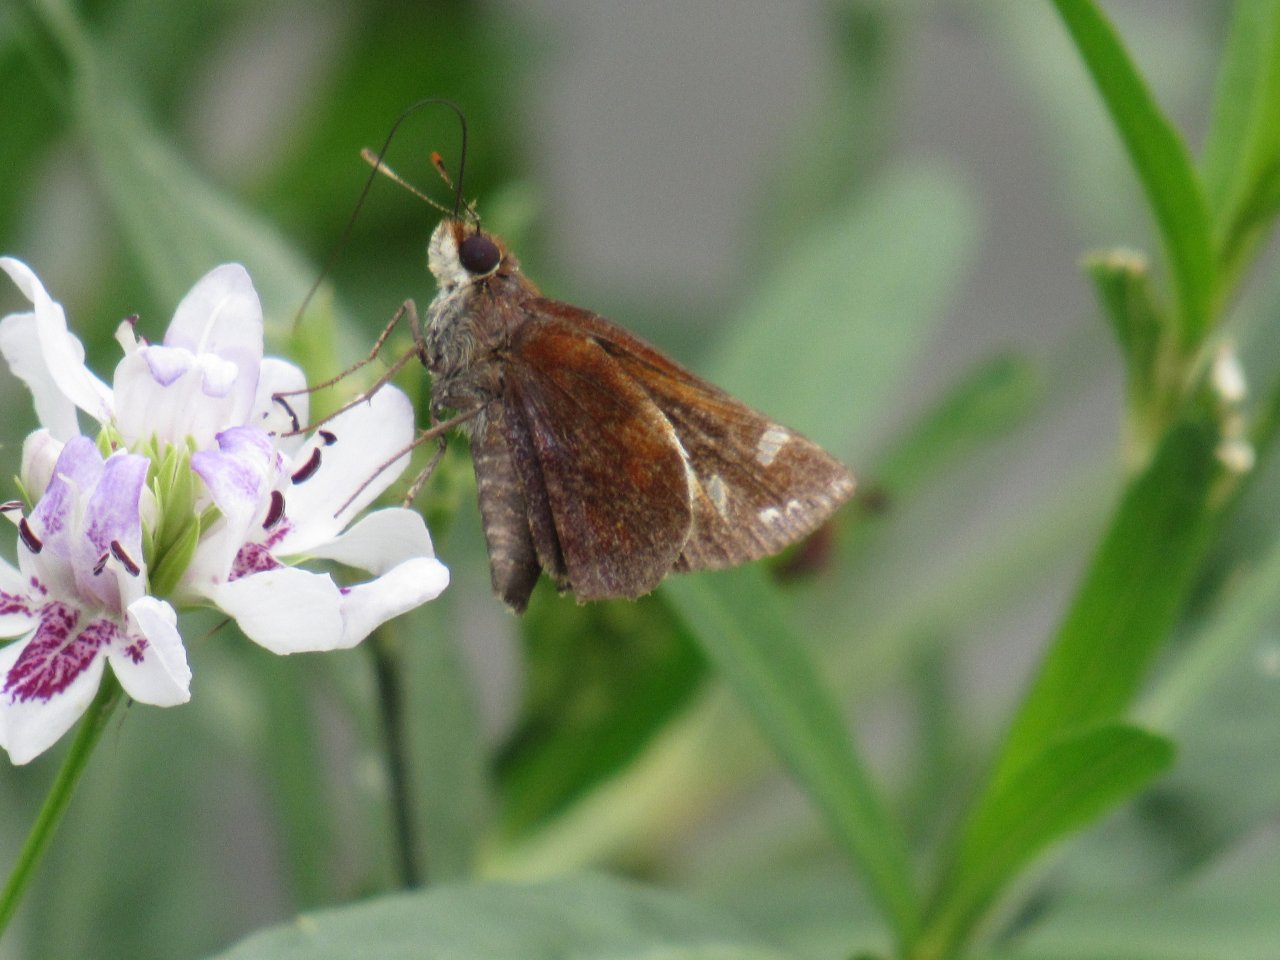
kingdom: Animalia
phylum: Arthropoda
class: Insecta
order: Lepidoptera
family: Hesperiidae
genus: Lon
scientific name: Lon zabulon
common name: Zabulon Skipper
